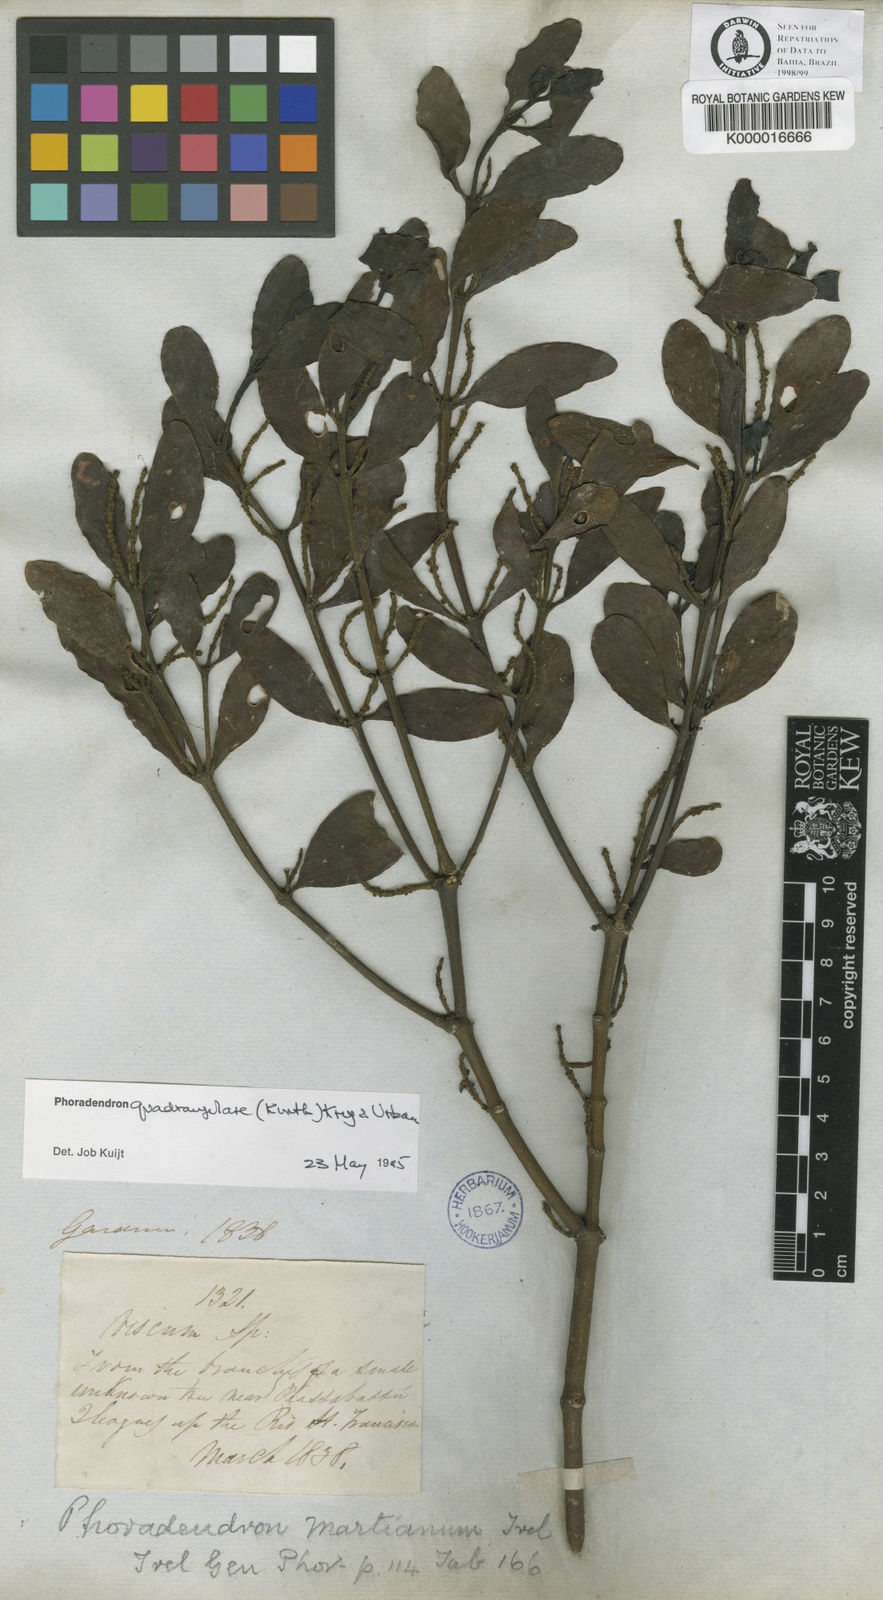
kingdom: Plantae
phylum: Tracheophyta
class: Magnoliopsida
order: Santalales
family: Viscaceae
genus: Phoradendron
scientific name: Phoradendron
